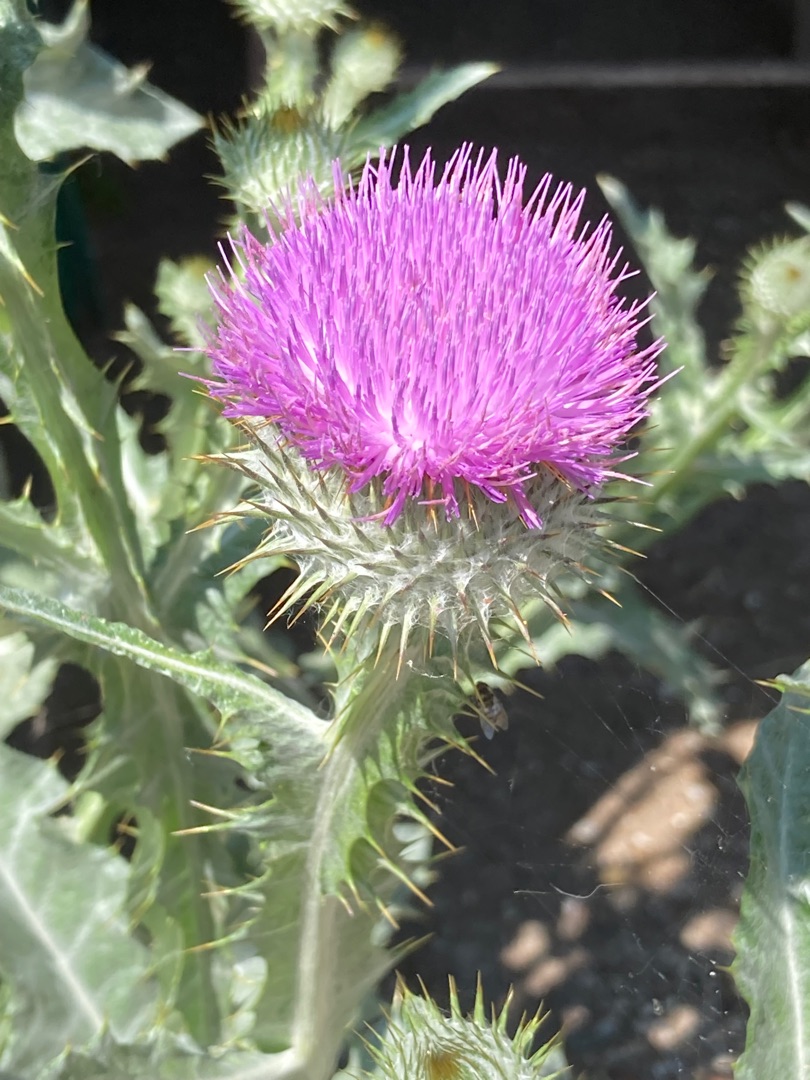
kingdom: Plantae
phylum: Tracheophyta
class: Magnoliopsida
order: Asterales
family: Asteraceae
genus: Onopordum
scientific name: Onopordum acanthium
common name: Æselfoder
